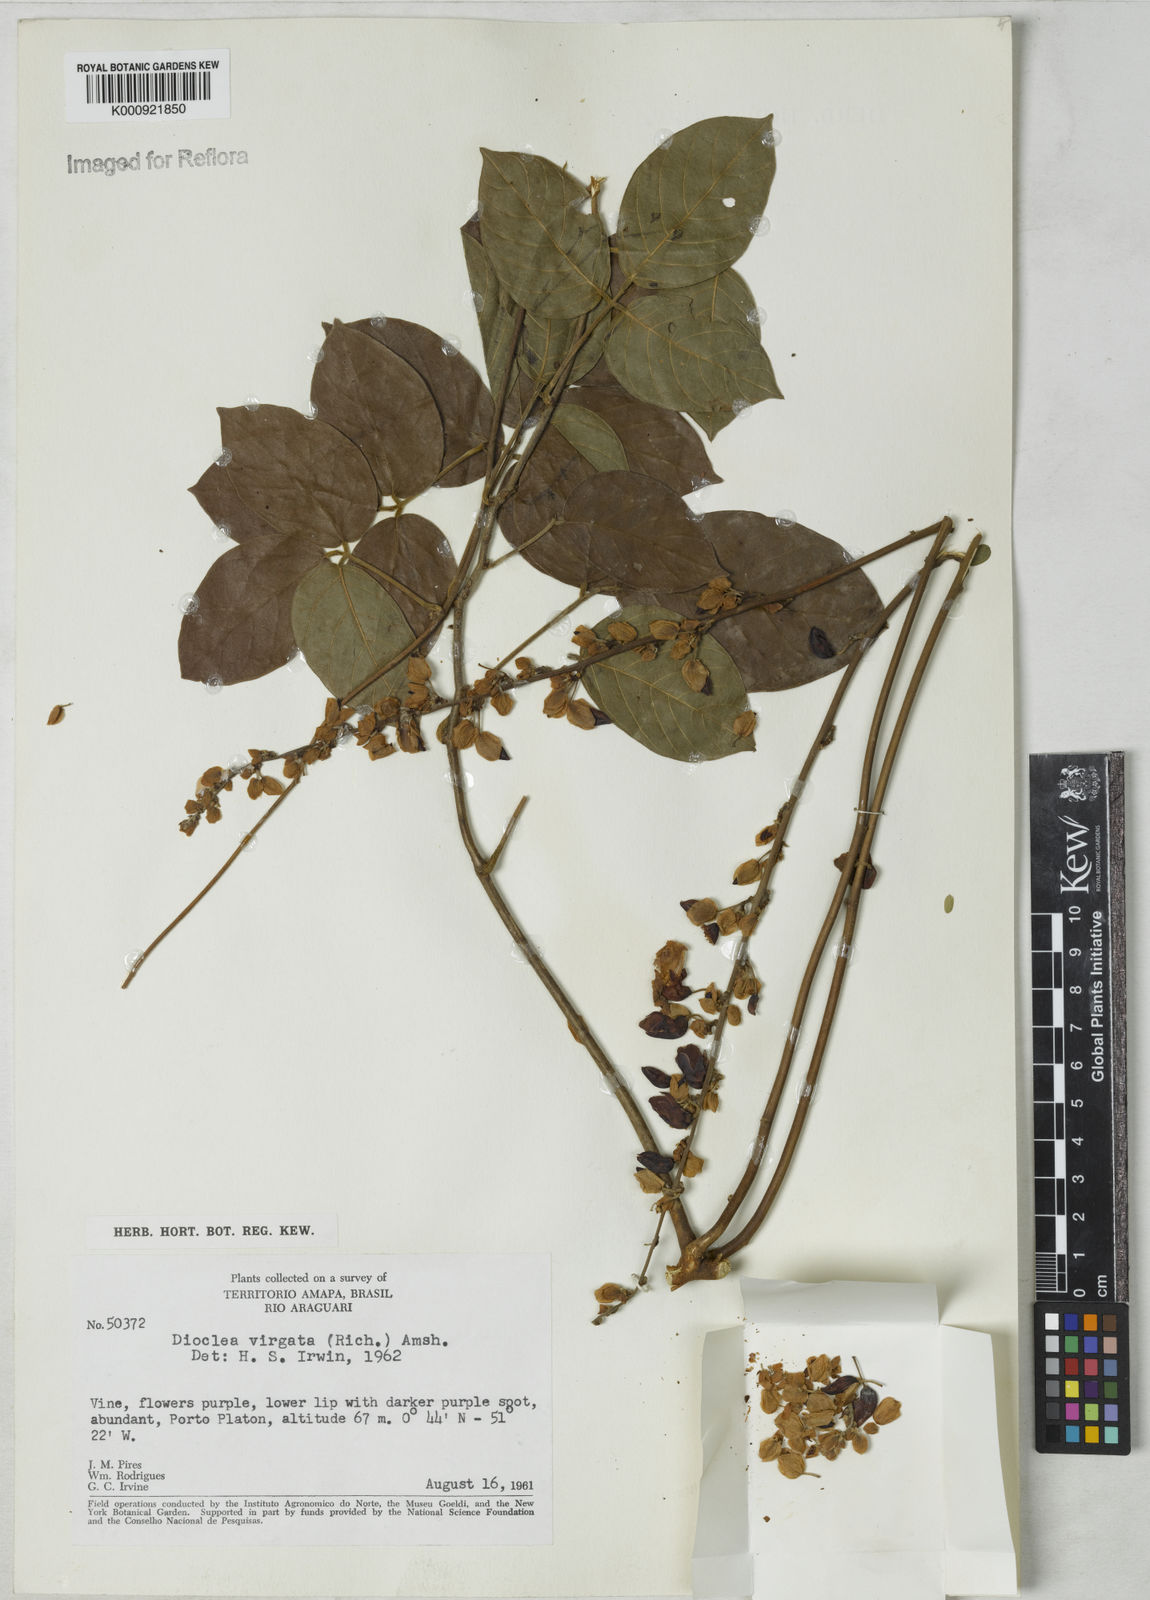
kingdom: Plantae
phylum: Tracheophyta
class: Magnoliopsida
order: Fabales
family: Fabaceae
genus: Dioclea
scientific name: Dioclea virgata
